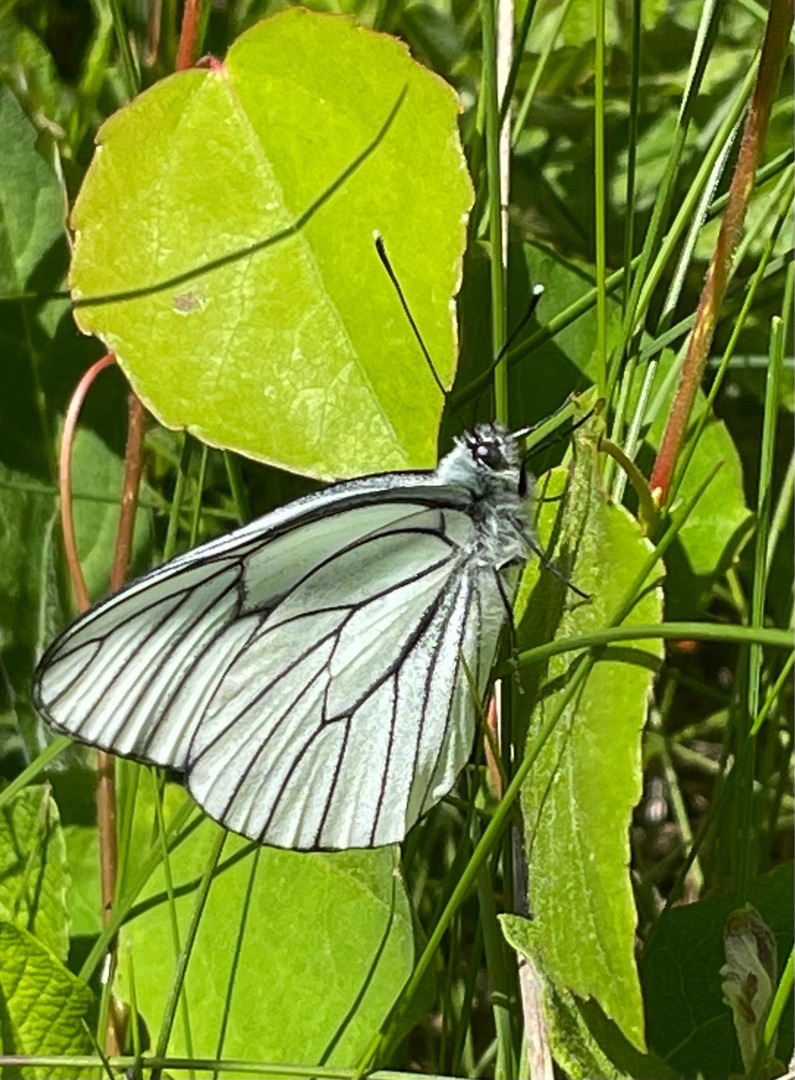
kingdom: Animalia
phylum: Arthropoda
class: Insecta
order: Lepidoptera
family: Pieridae
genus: Aporia
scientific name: Aporia crataegi
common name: Sortåret hvidvinge
